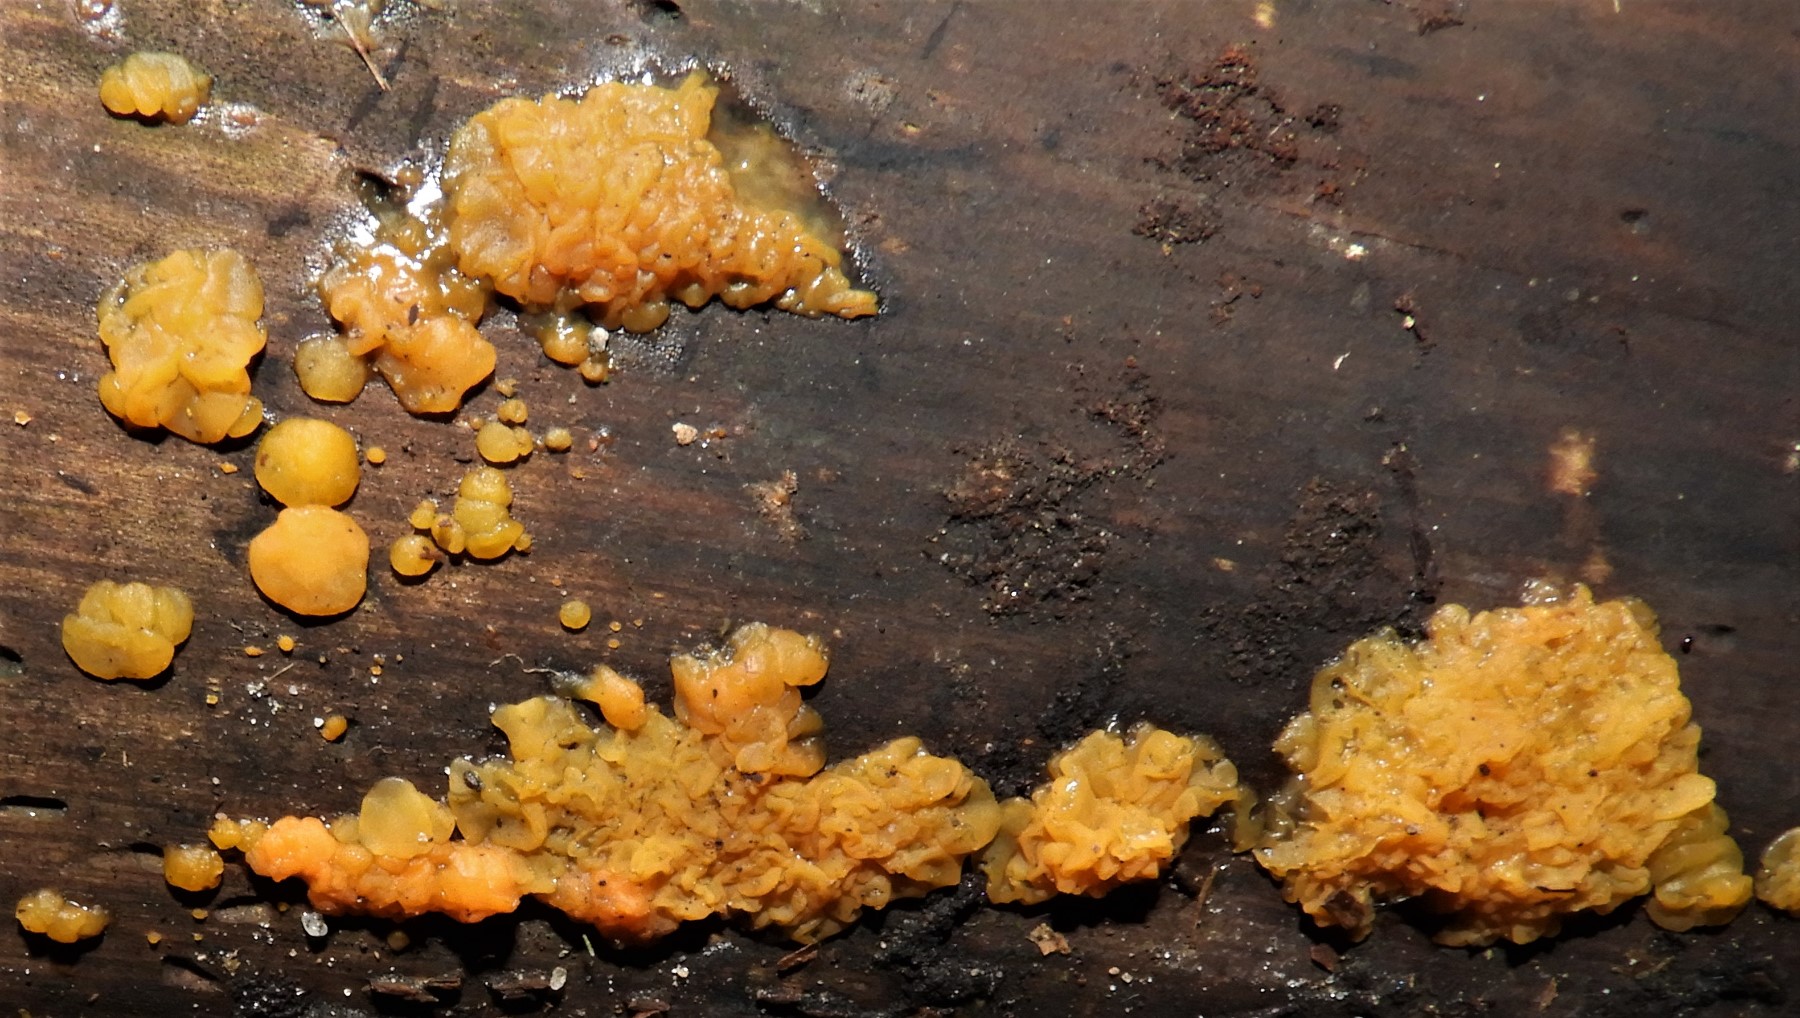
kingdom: Fungi
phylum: Basidiomycota
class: Dacrymycetes
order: Dacrymycetales
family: Dacrymycetaceae
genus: Dacrymyces
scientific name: Dacrymyces stillatus
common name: almindelig tåresvamp
